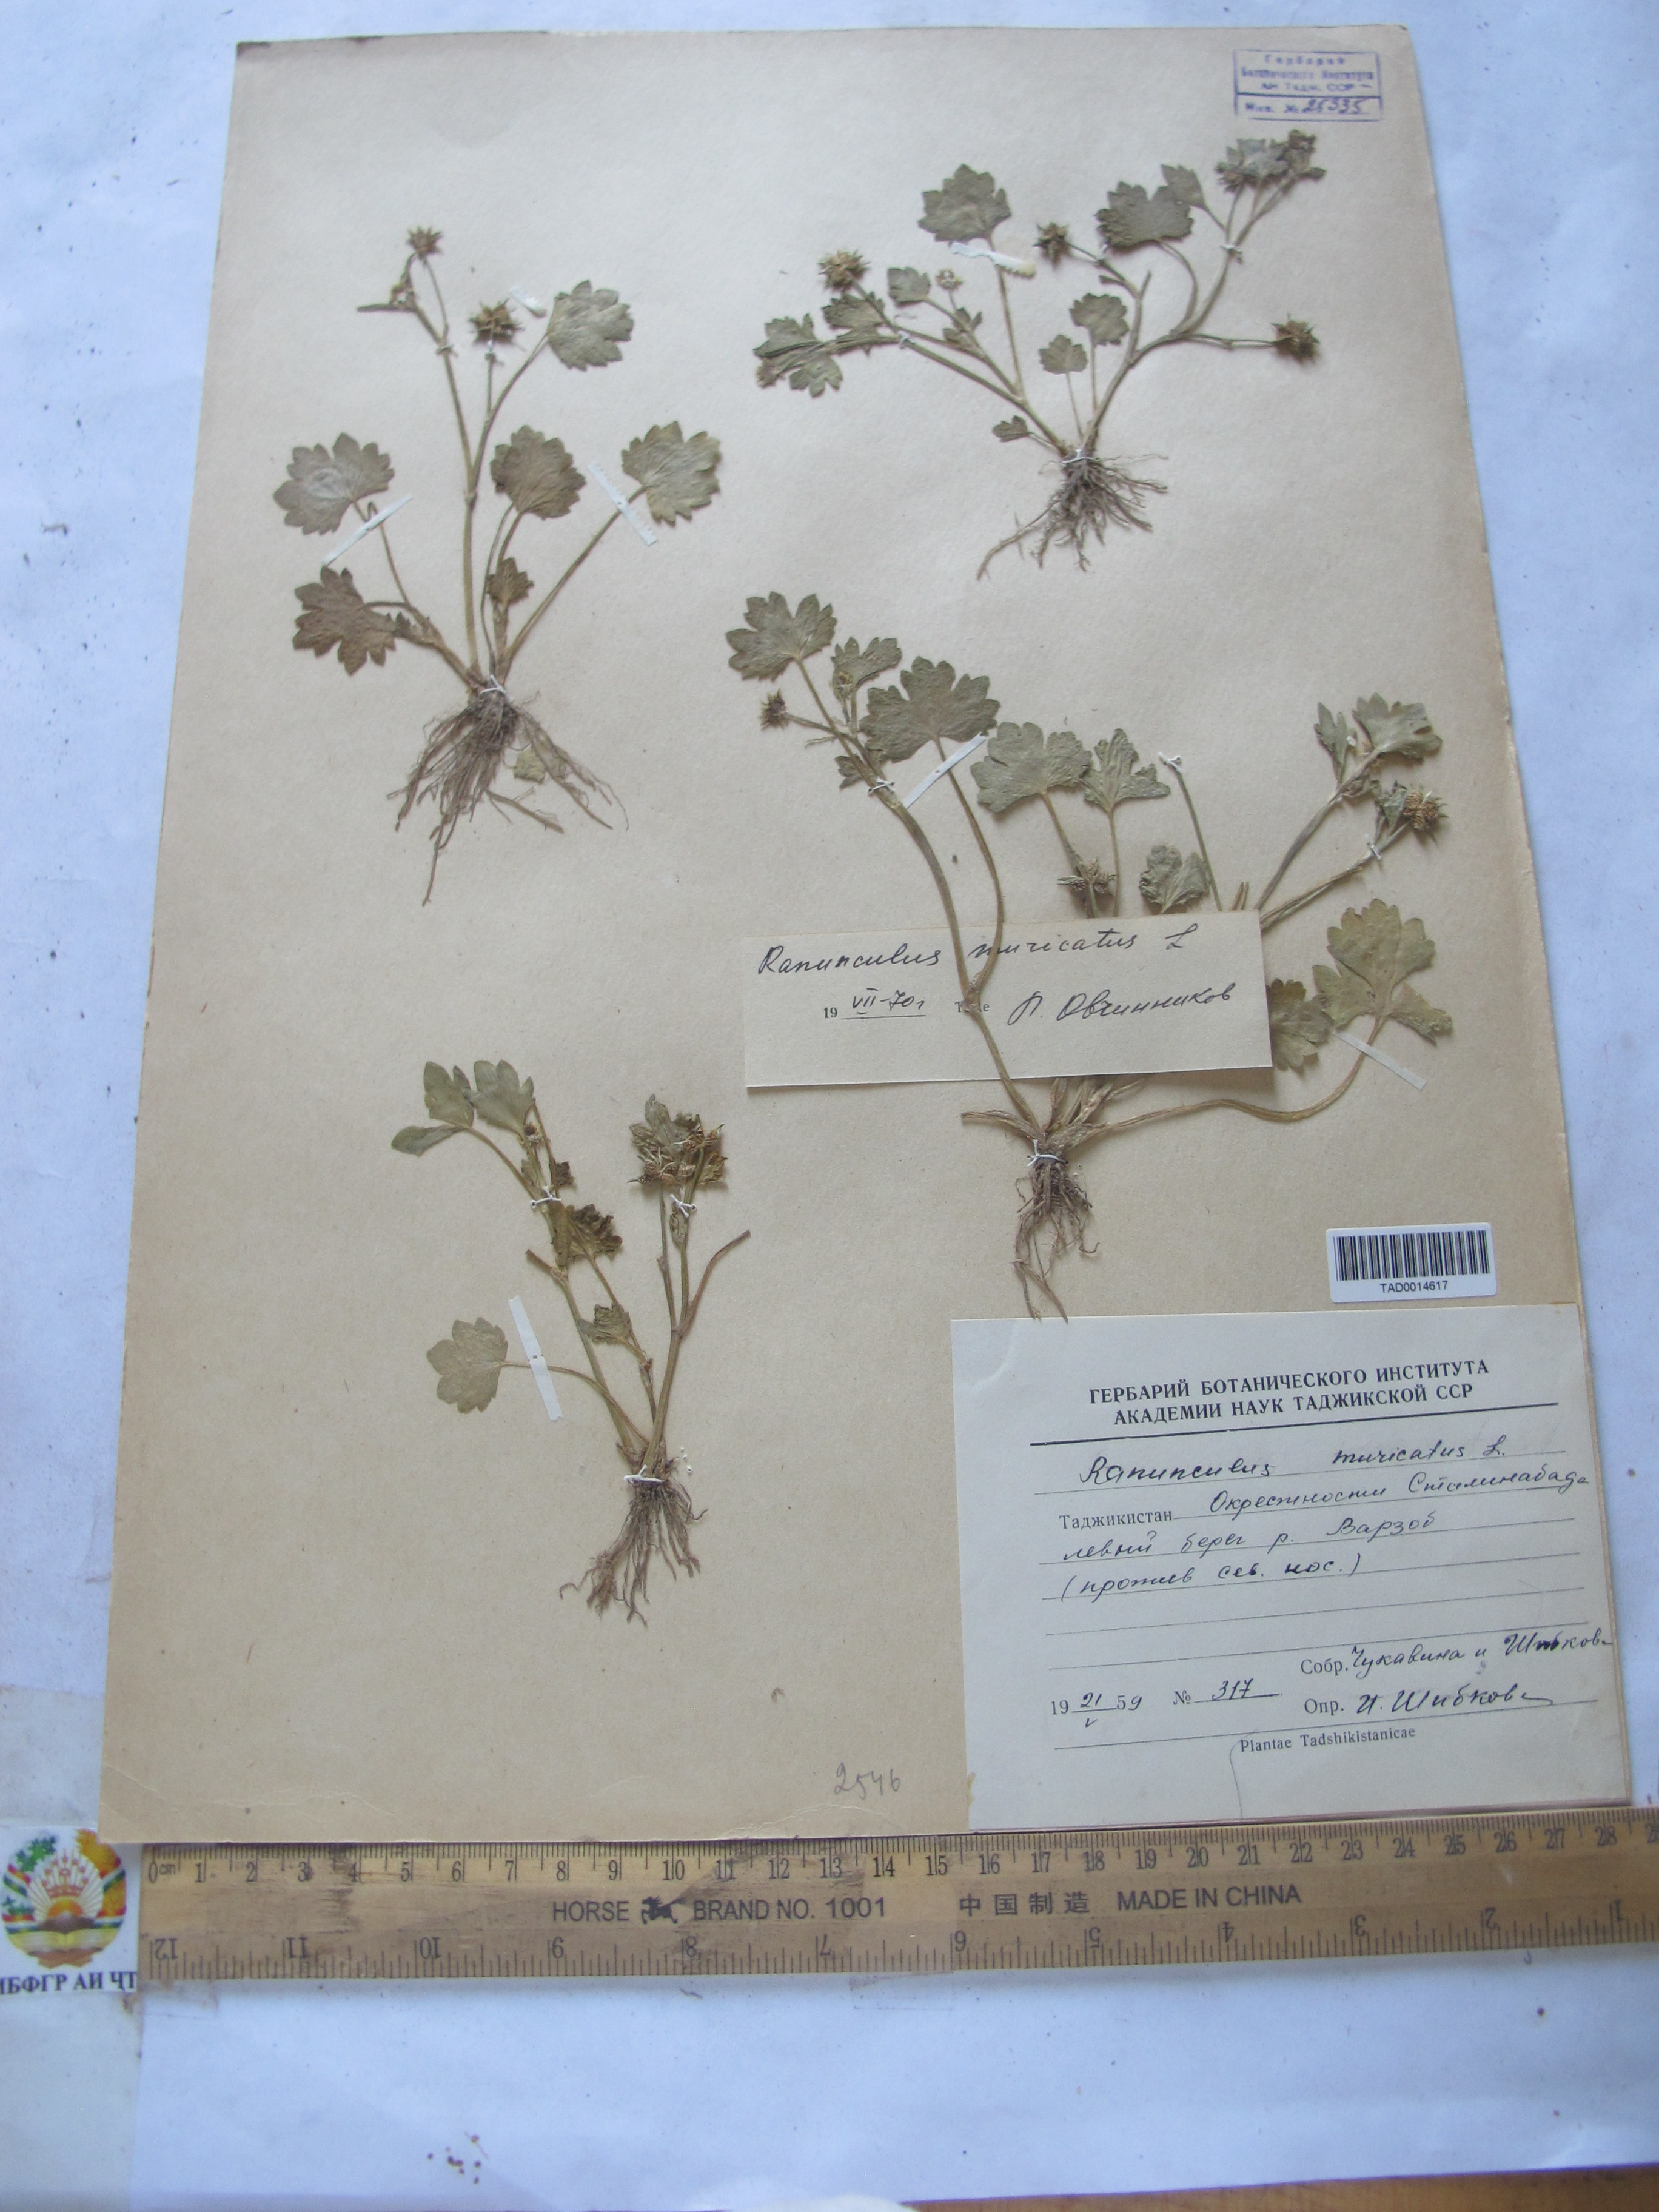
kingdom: Plantae
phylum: Tracheophyta
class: Magnoliopsida
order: Ranunculales
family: Ranunculaceae
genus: Ranunculus
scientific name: Ranunculus muricatus
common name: Rough-fruited buttercup
